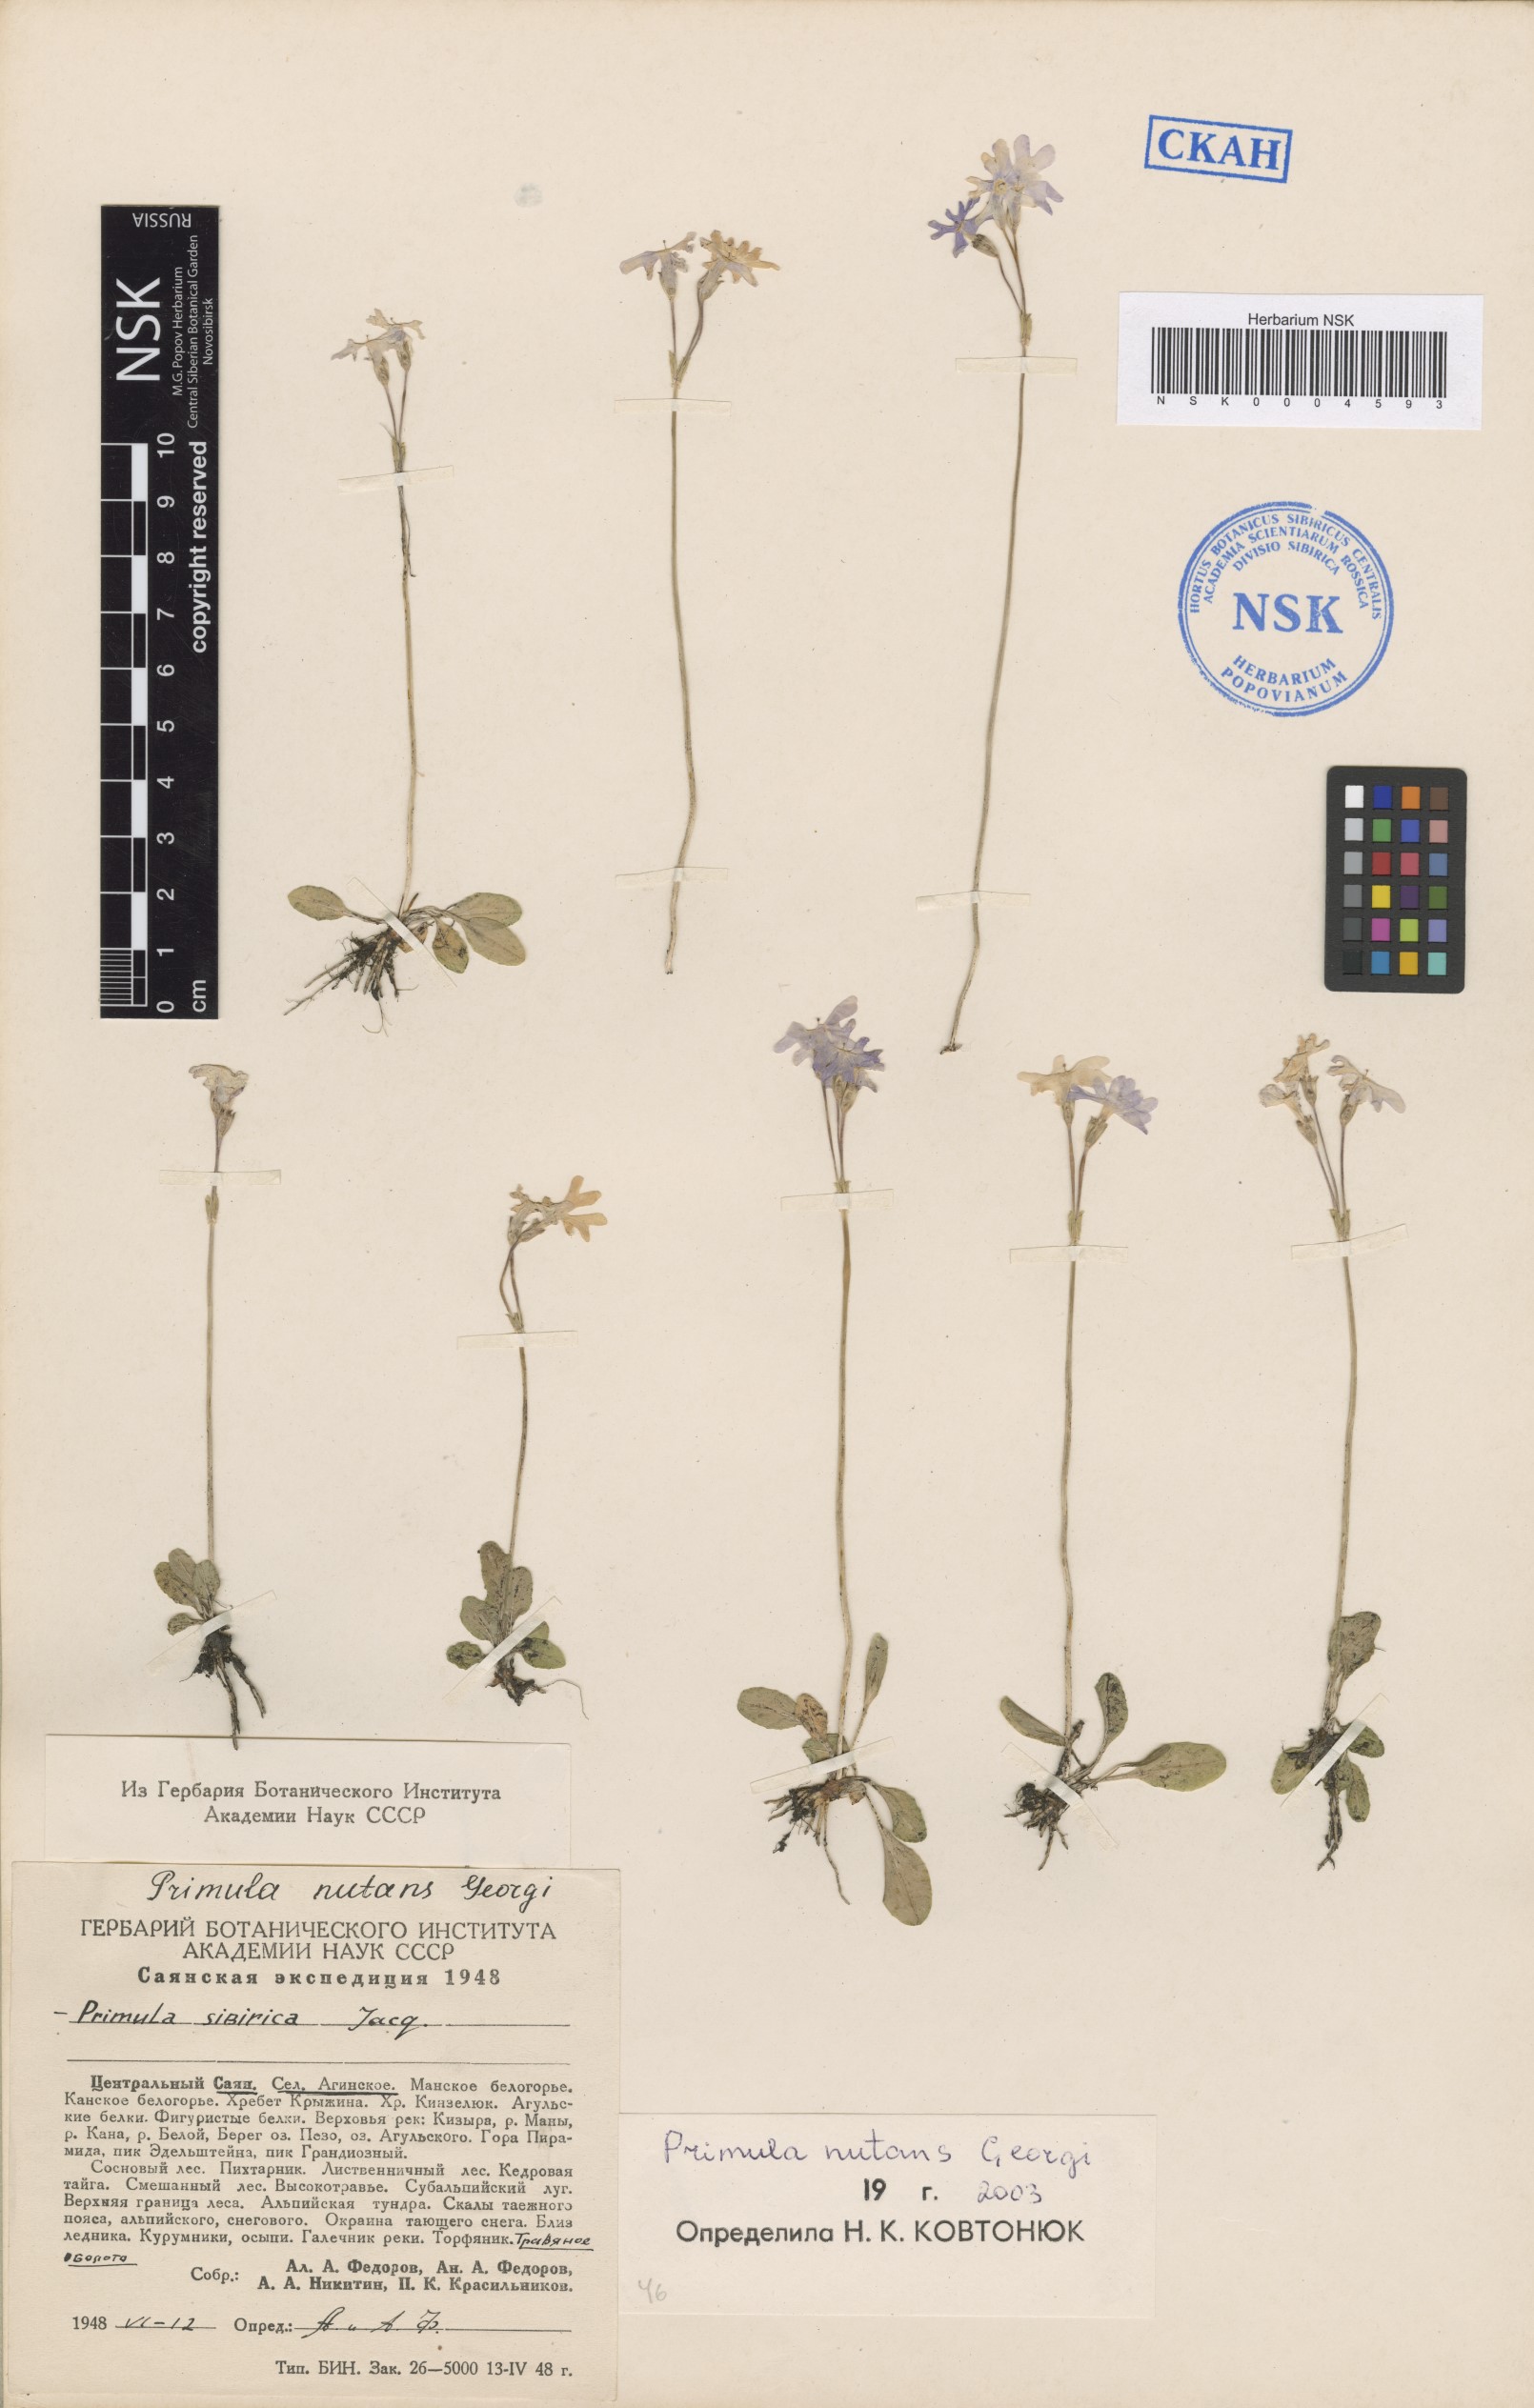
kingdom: Plantae
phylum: Tracheophyta
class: Magnoliopsida
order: Ericales
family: Primulaceae
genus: Primula
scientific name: Primula nutans
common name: Siberian primrose
